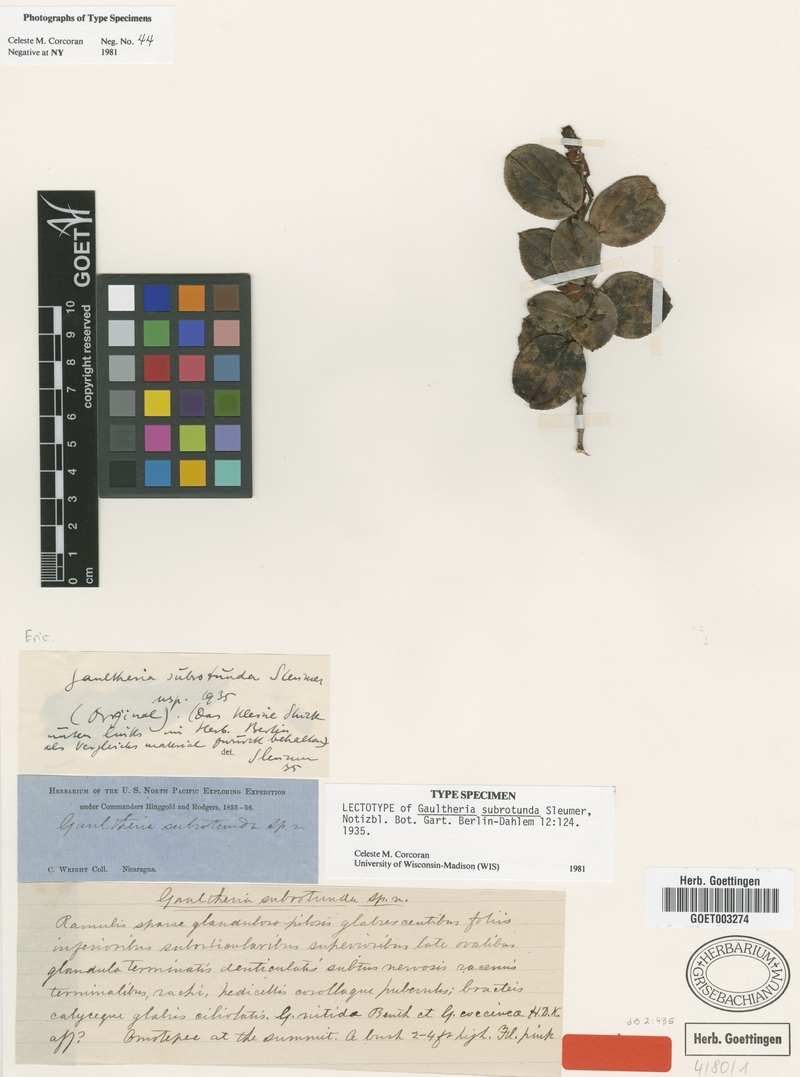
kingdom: Plantae
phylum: Tracheophyta
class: Magnoliopsida
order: Ericales
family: Ericaceae
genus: Gaultheria
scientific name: Gaultheria erecta
